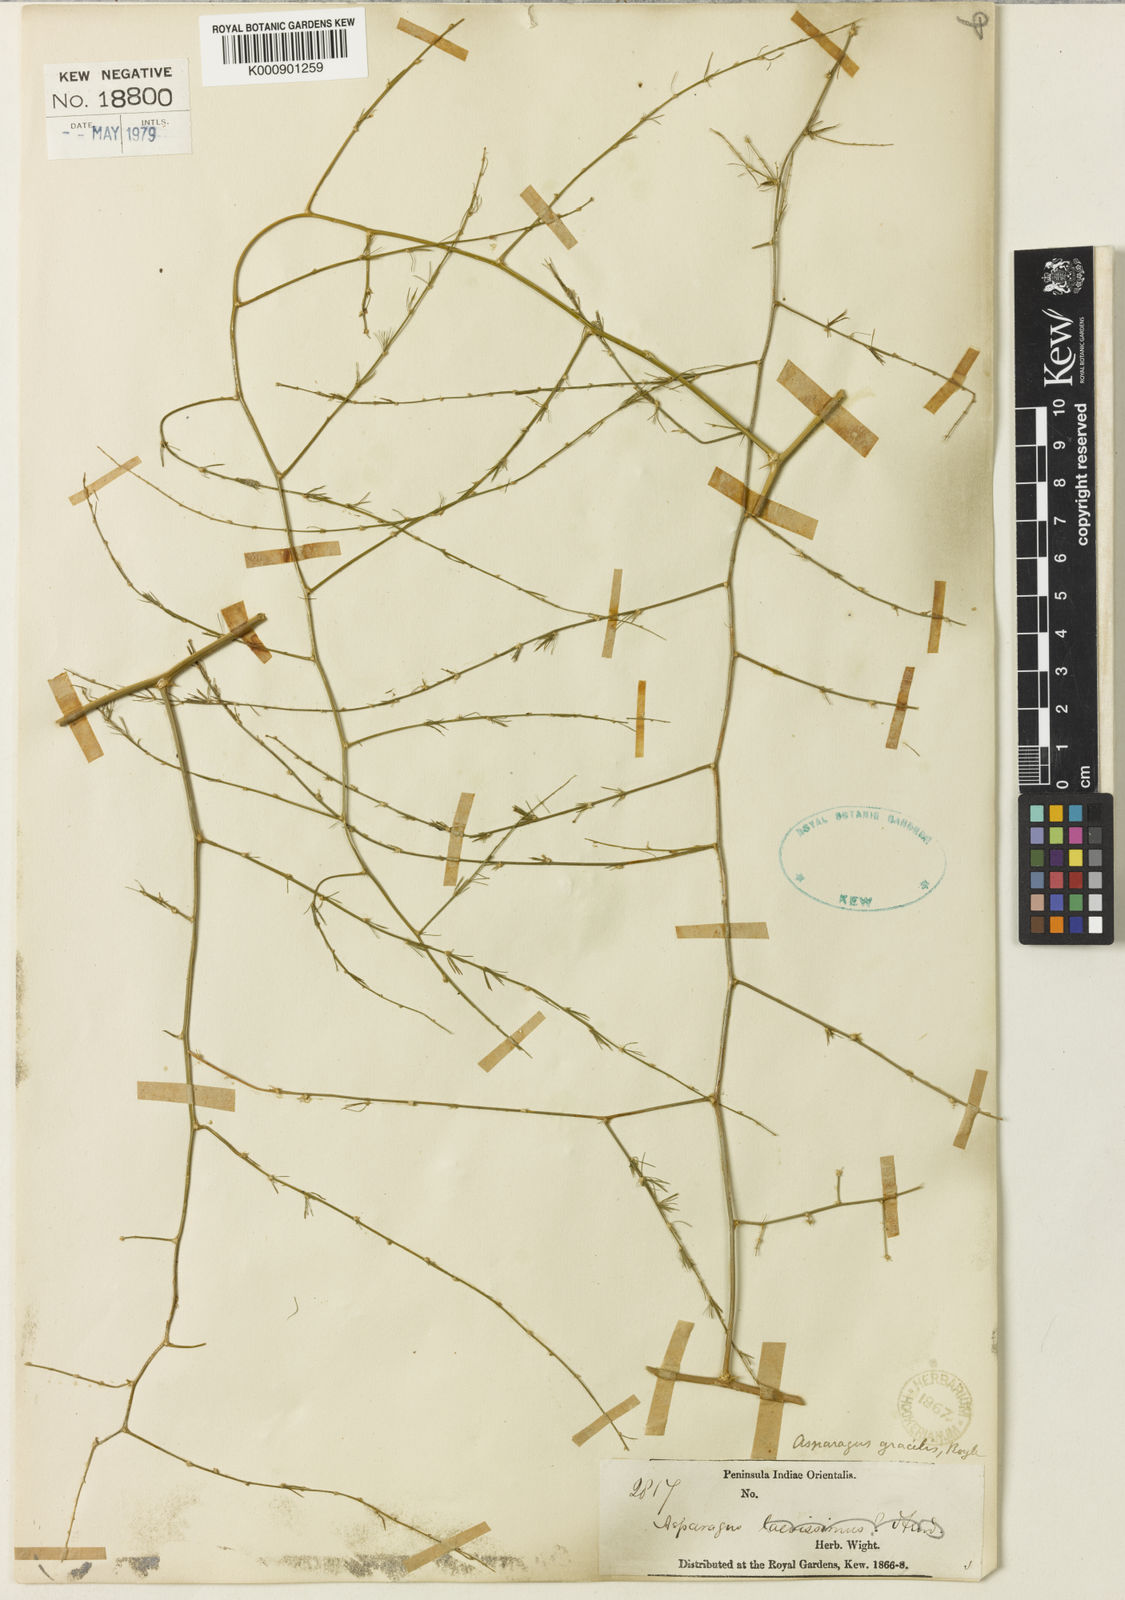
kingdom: Plantae
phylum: Tracheophyta
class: Liliopsida
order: Asparagales
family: Asparagaceae
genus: Asparagus
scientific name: Asparagus
